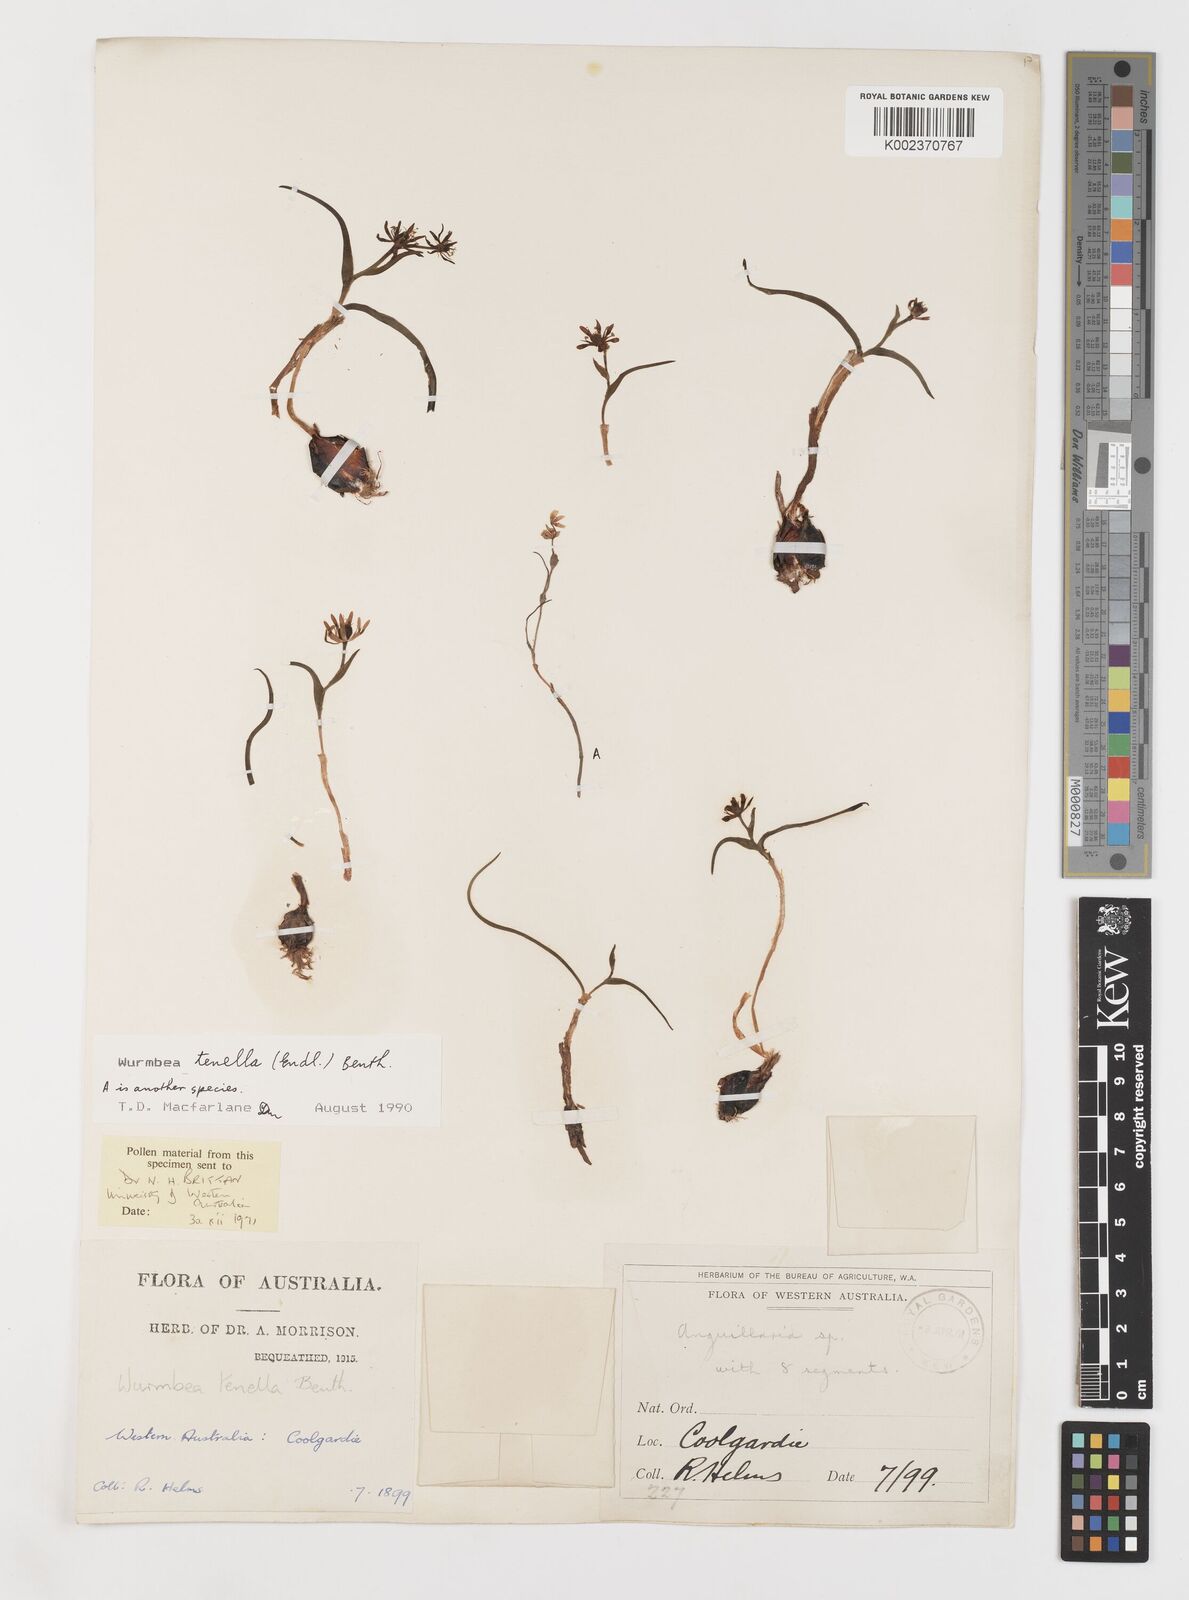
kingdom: Plantae
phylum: Tracheophyta
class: Liliopsida
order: Liliales
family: Colchicaceae
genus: Wurmbea
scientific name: Wurmbea tenella
